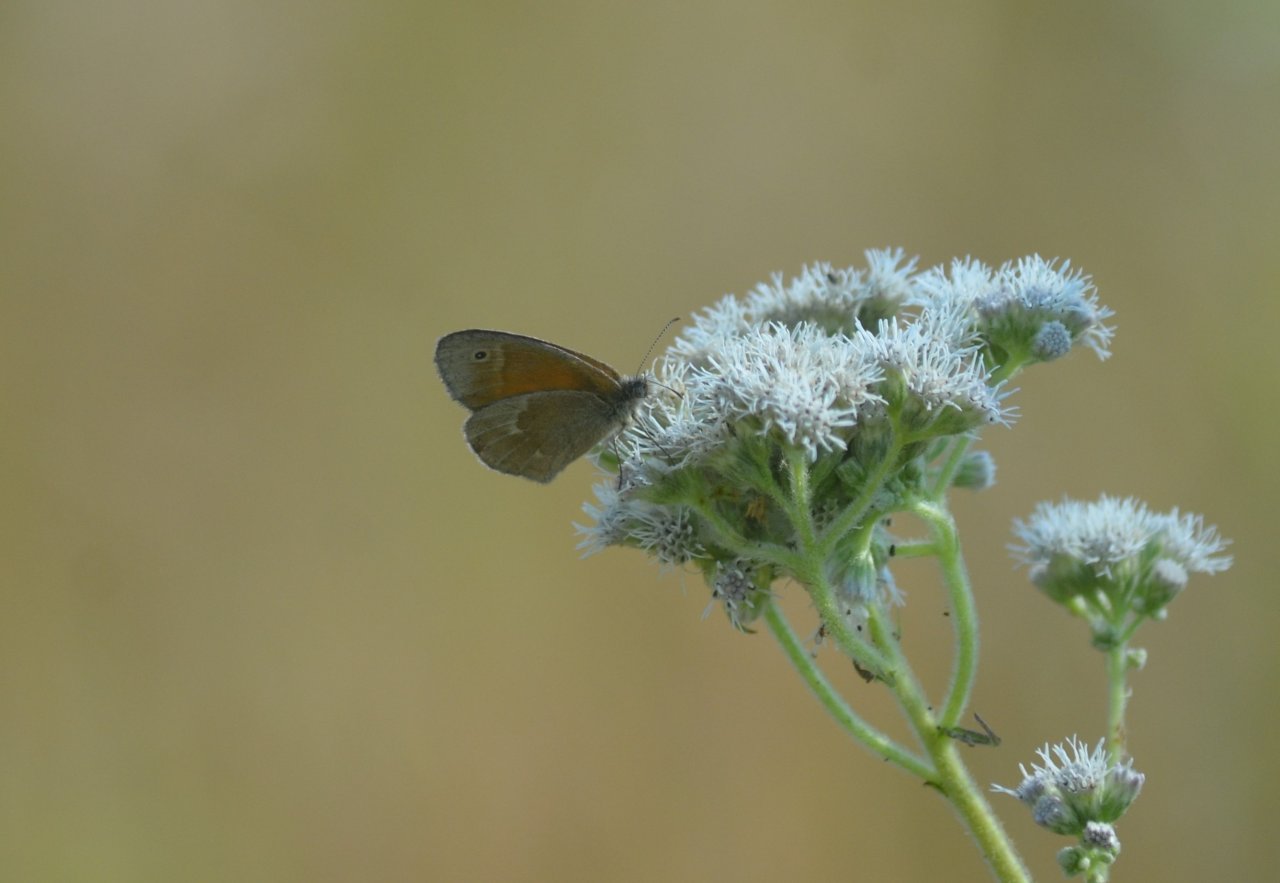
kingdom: Animalia
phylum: Arthropoda
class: Insecta
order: Lepidoptera
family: Nymphalidae
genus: Coenonympha
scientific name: Coenonympha tullia
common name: Large Heath
